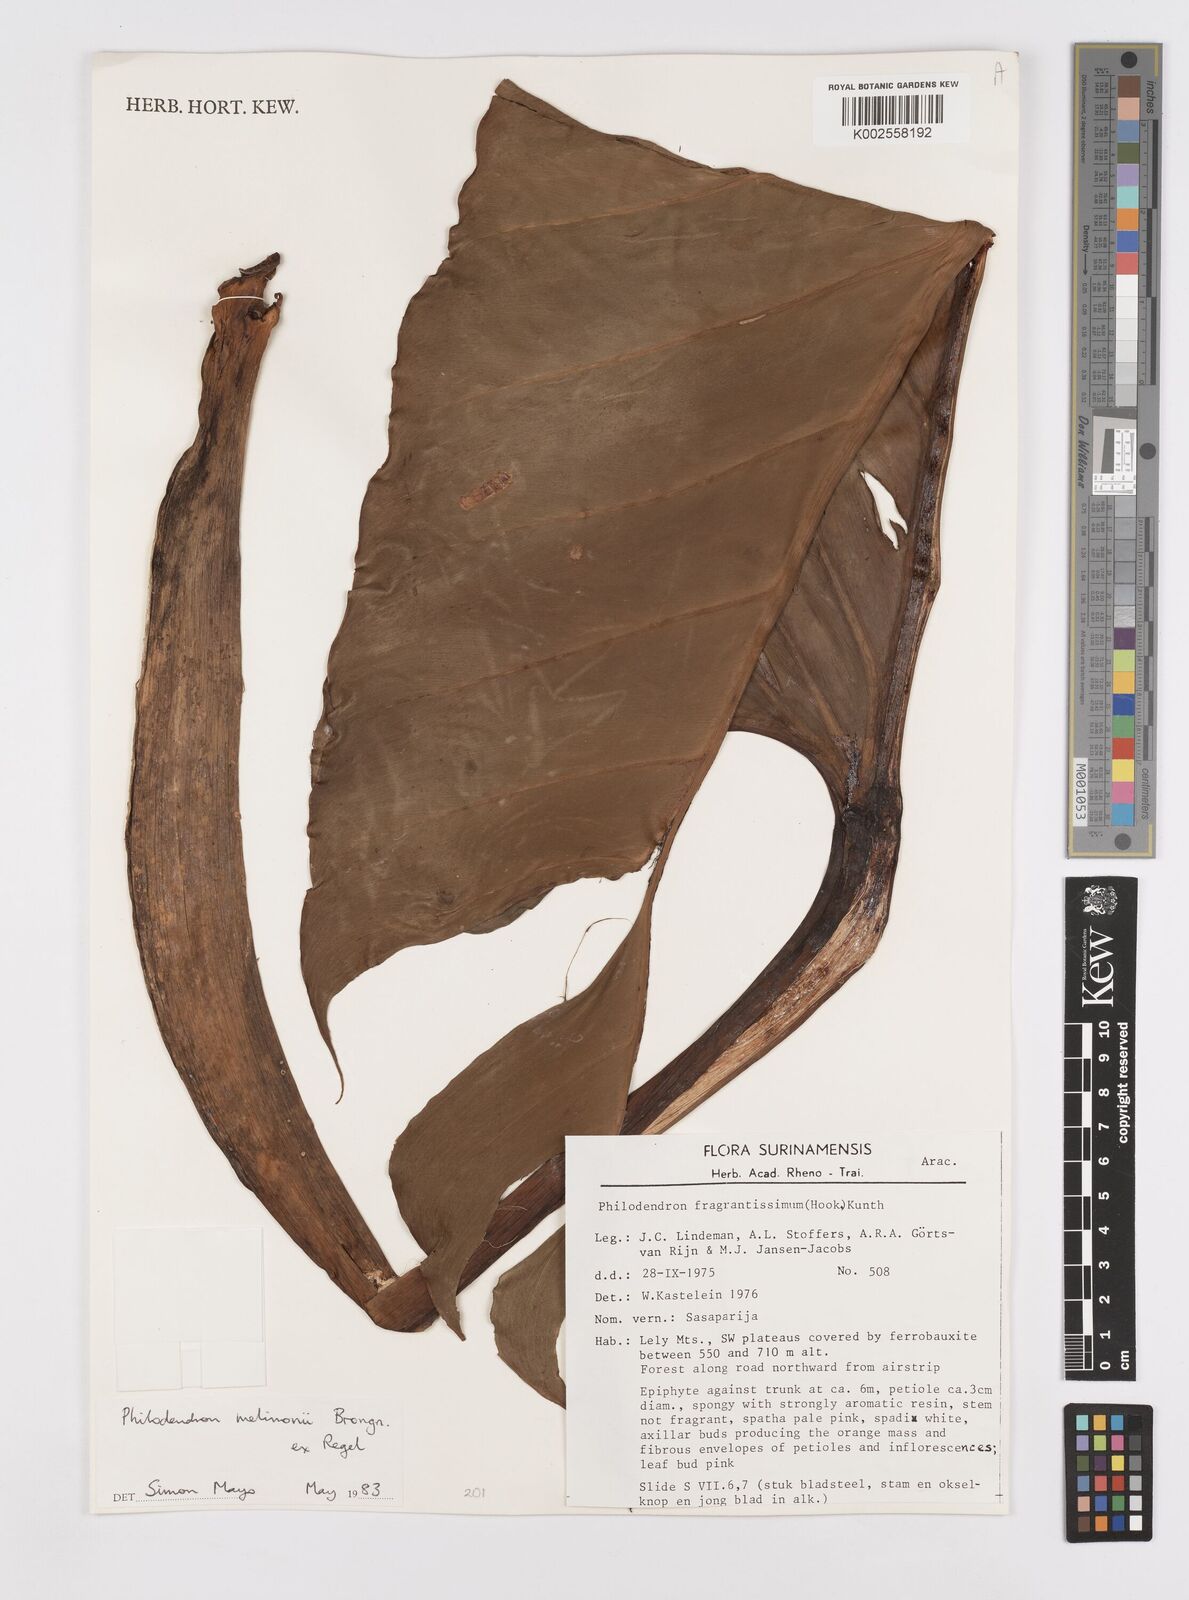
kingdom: Plantae
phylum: Tracheophyta
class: Liliopsida
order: Alismatales
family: Araceae
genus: Philodendron
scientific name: Philodendron melinonii
